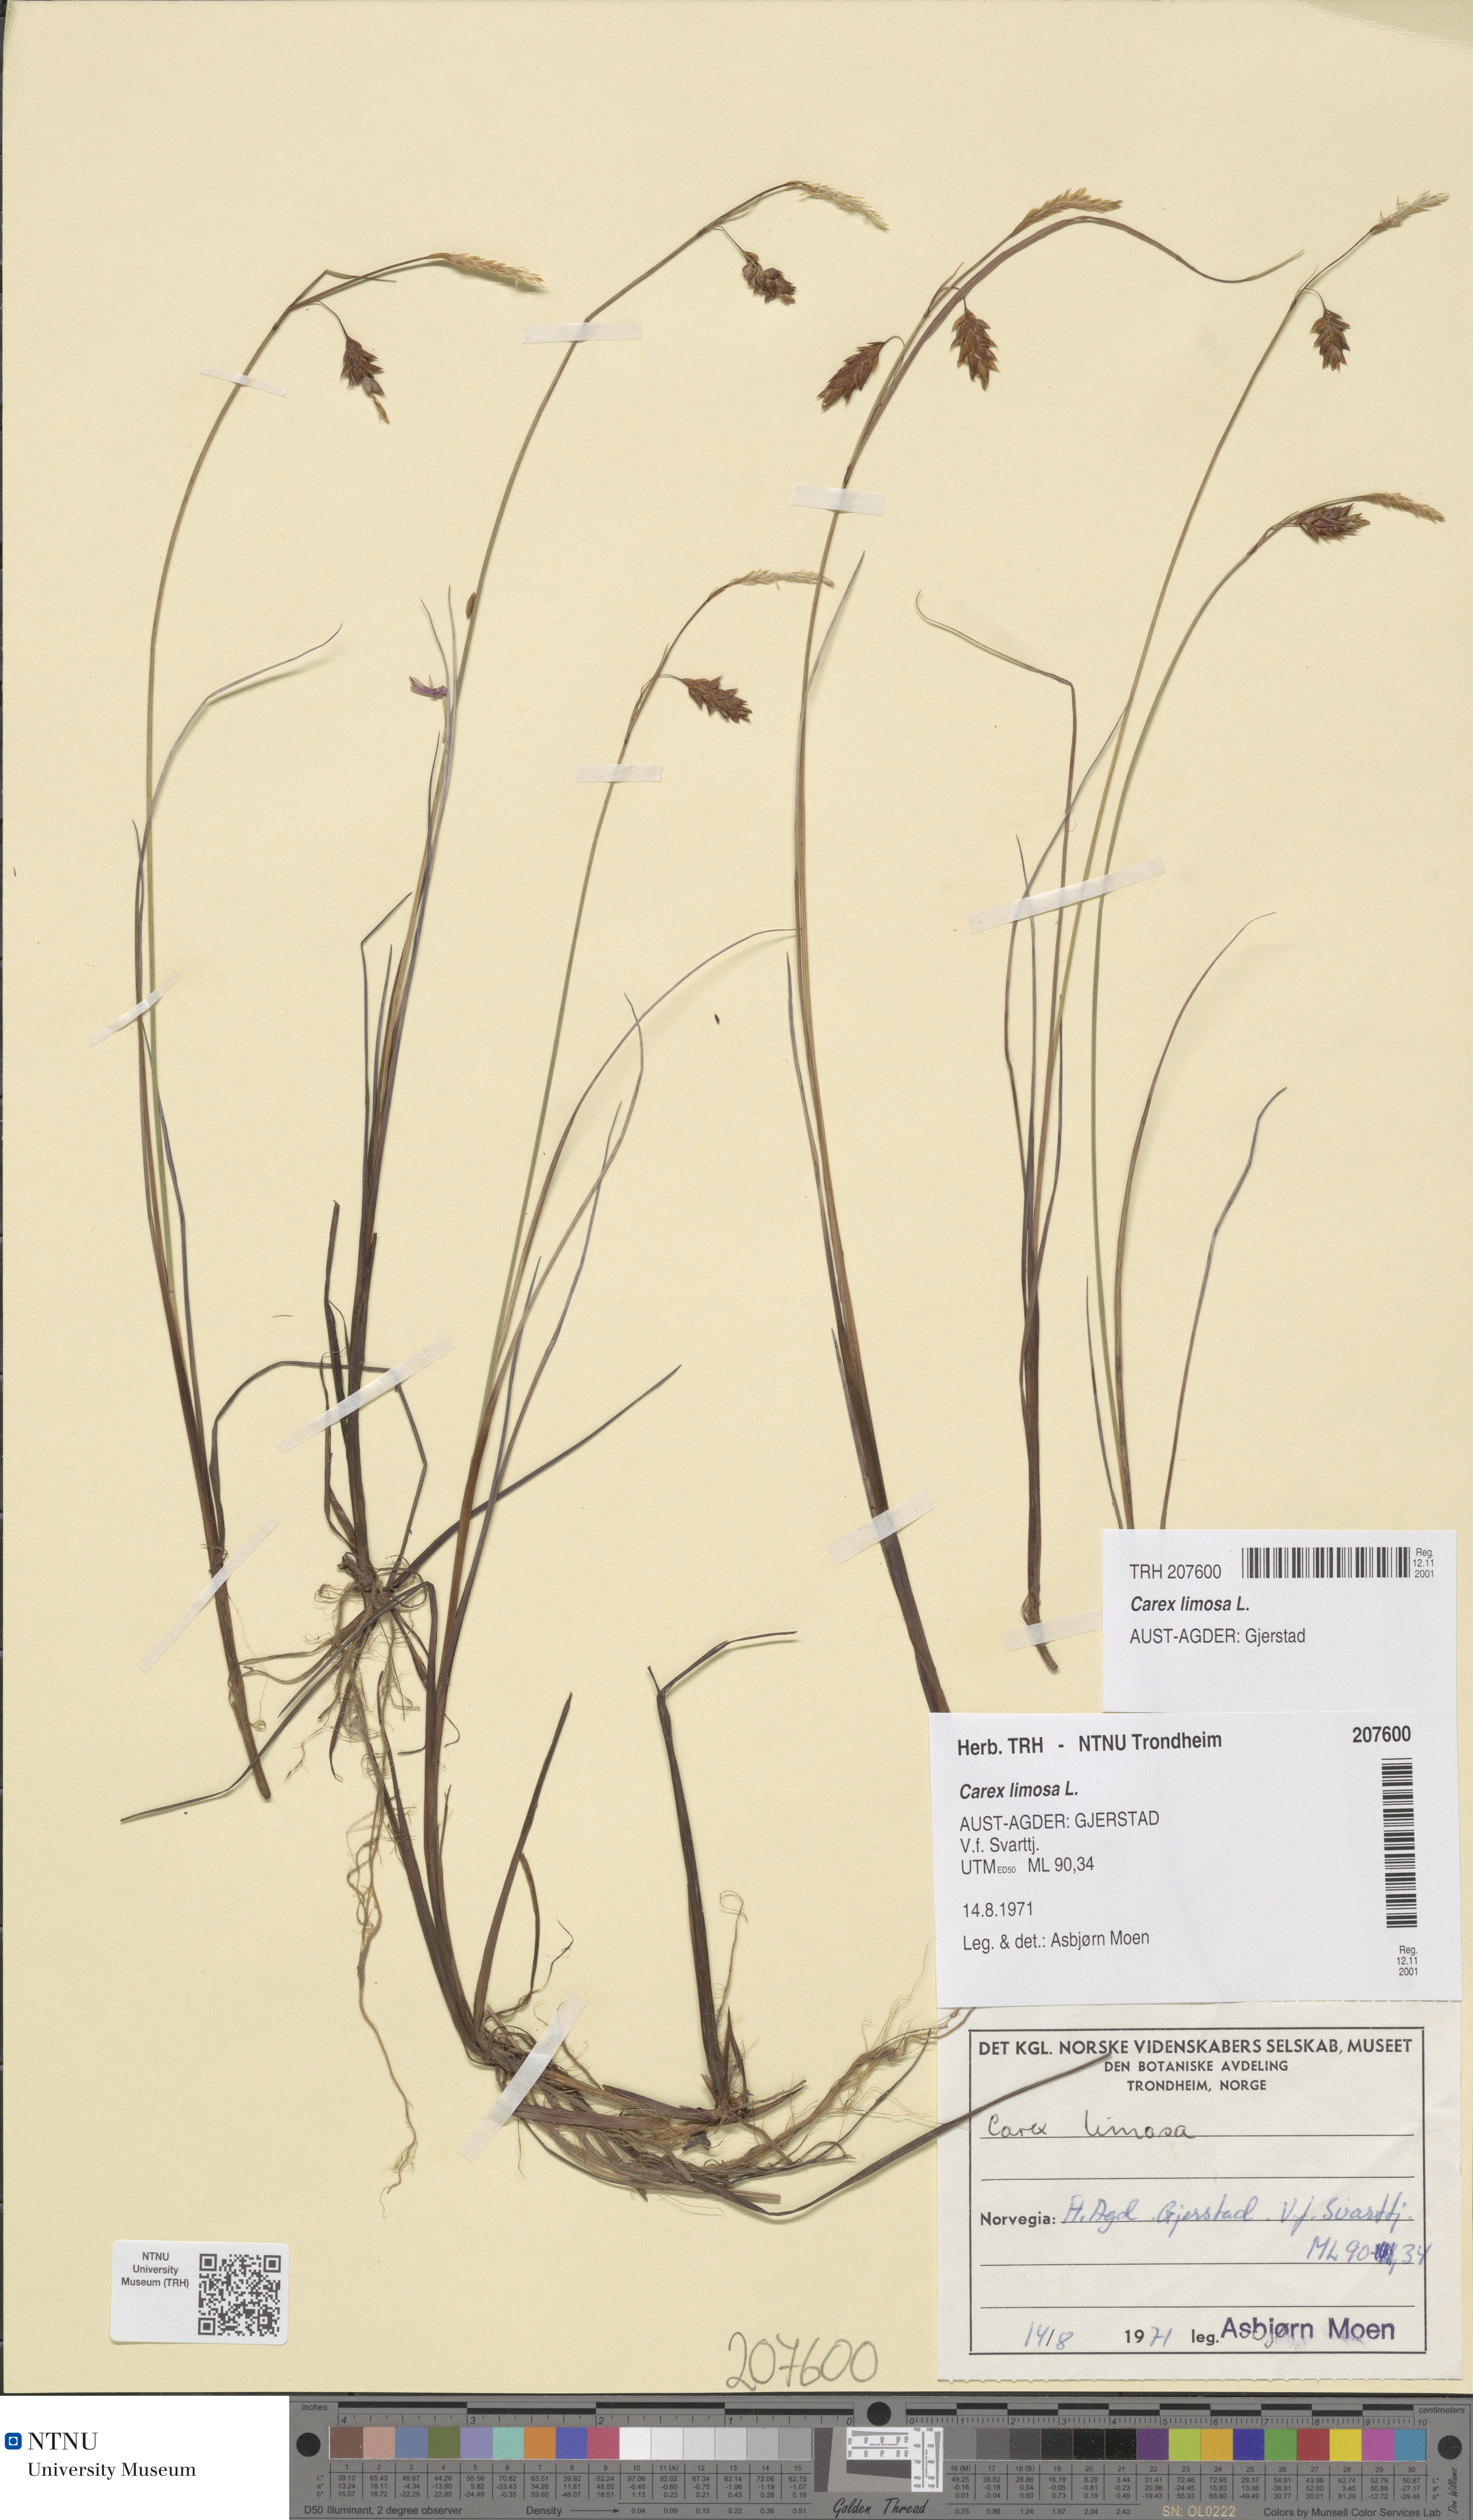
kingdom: Plantae
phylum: Tracheophyta
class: Liliopsida
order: Poales
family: Cyperaceae
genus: Carex
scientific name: Carex limosa
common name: Bog sedge
